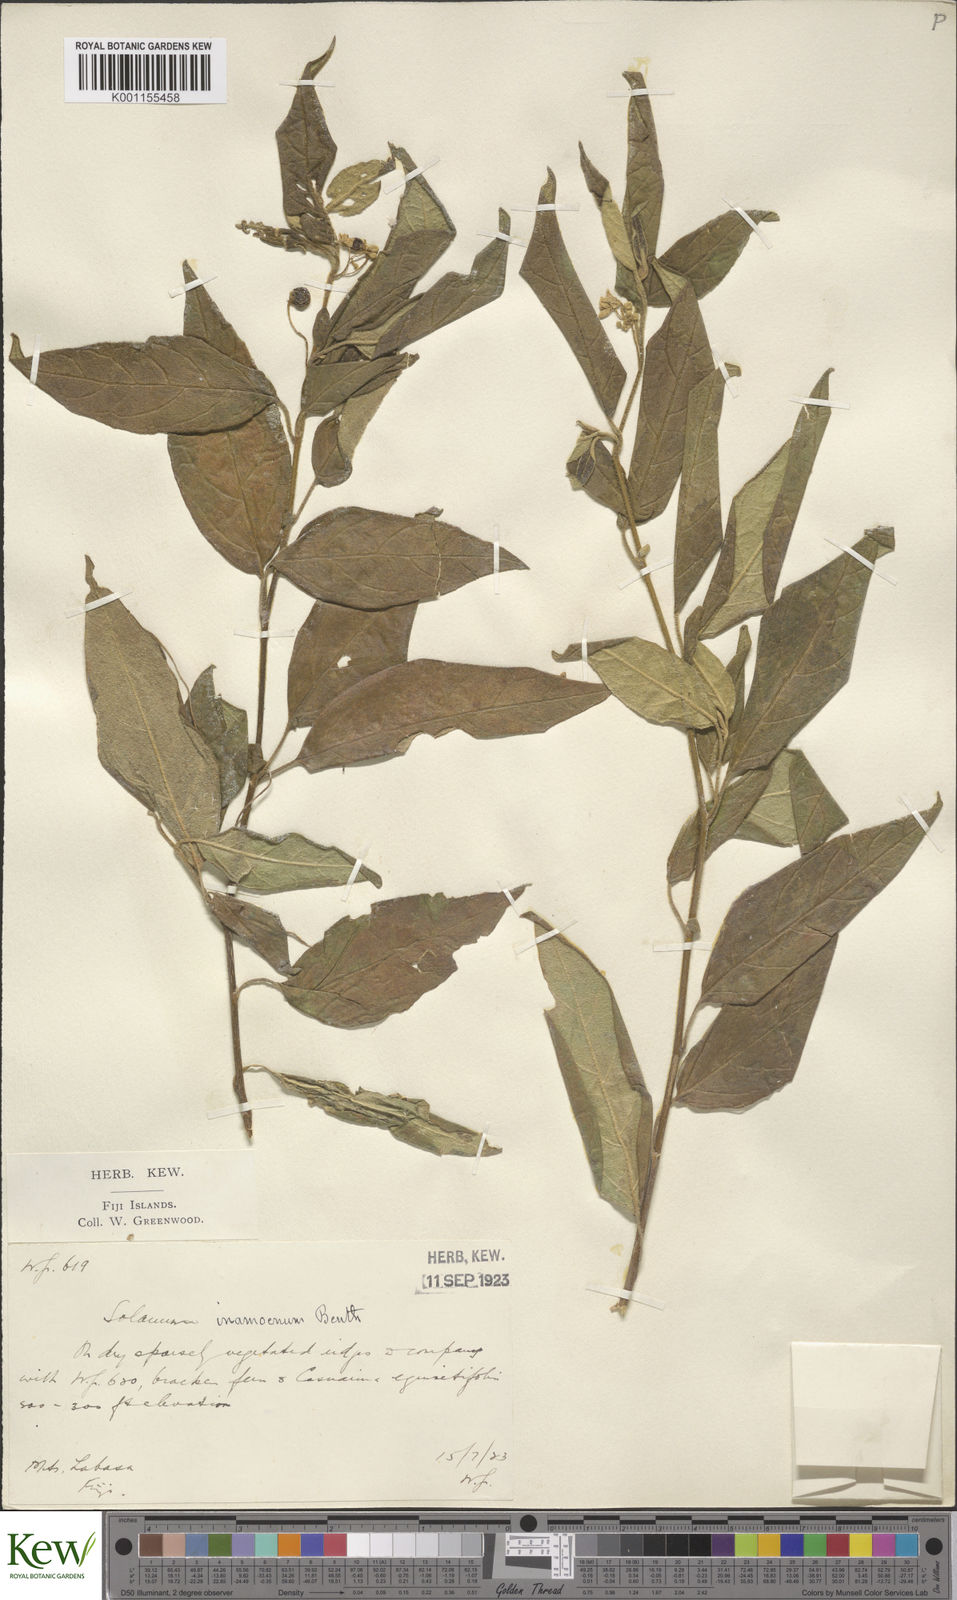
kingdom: Plantae
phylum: Tracheophyta
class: Magnoliopsida
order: Solanales
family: Solanaceae
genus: Solanum
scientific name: Solanum inamoenum
